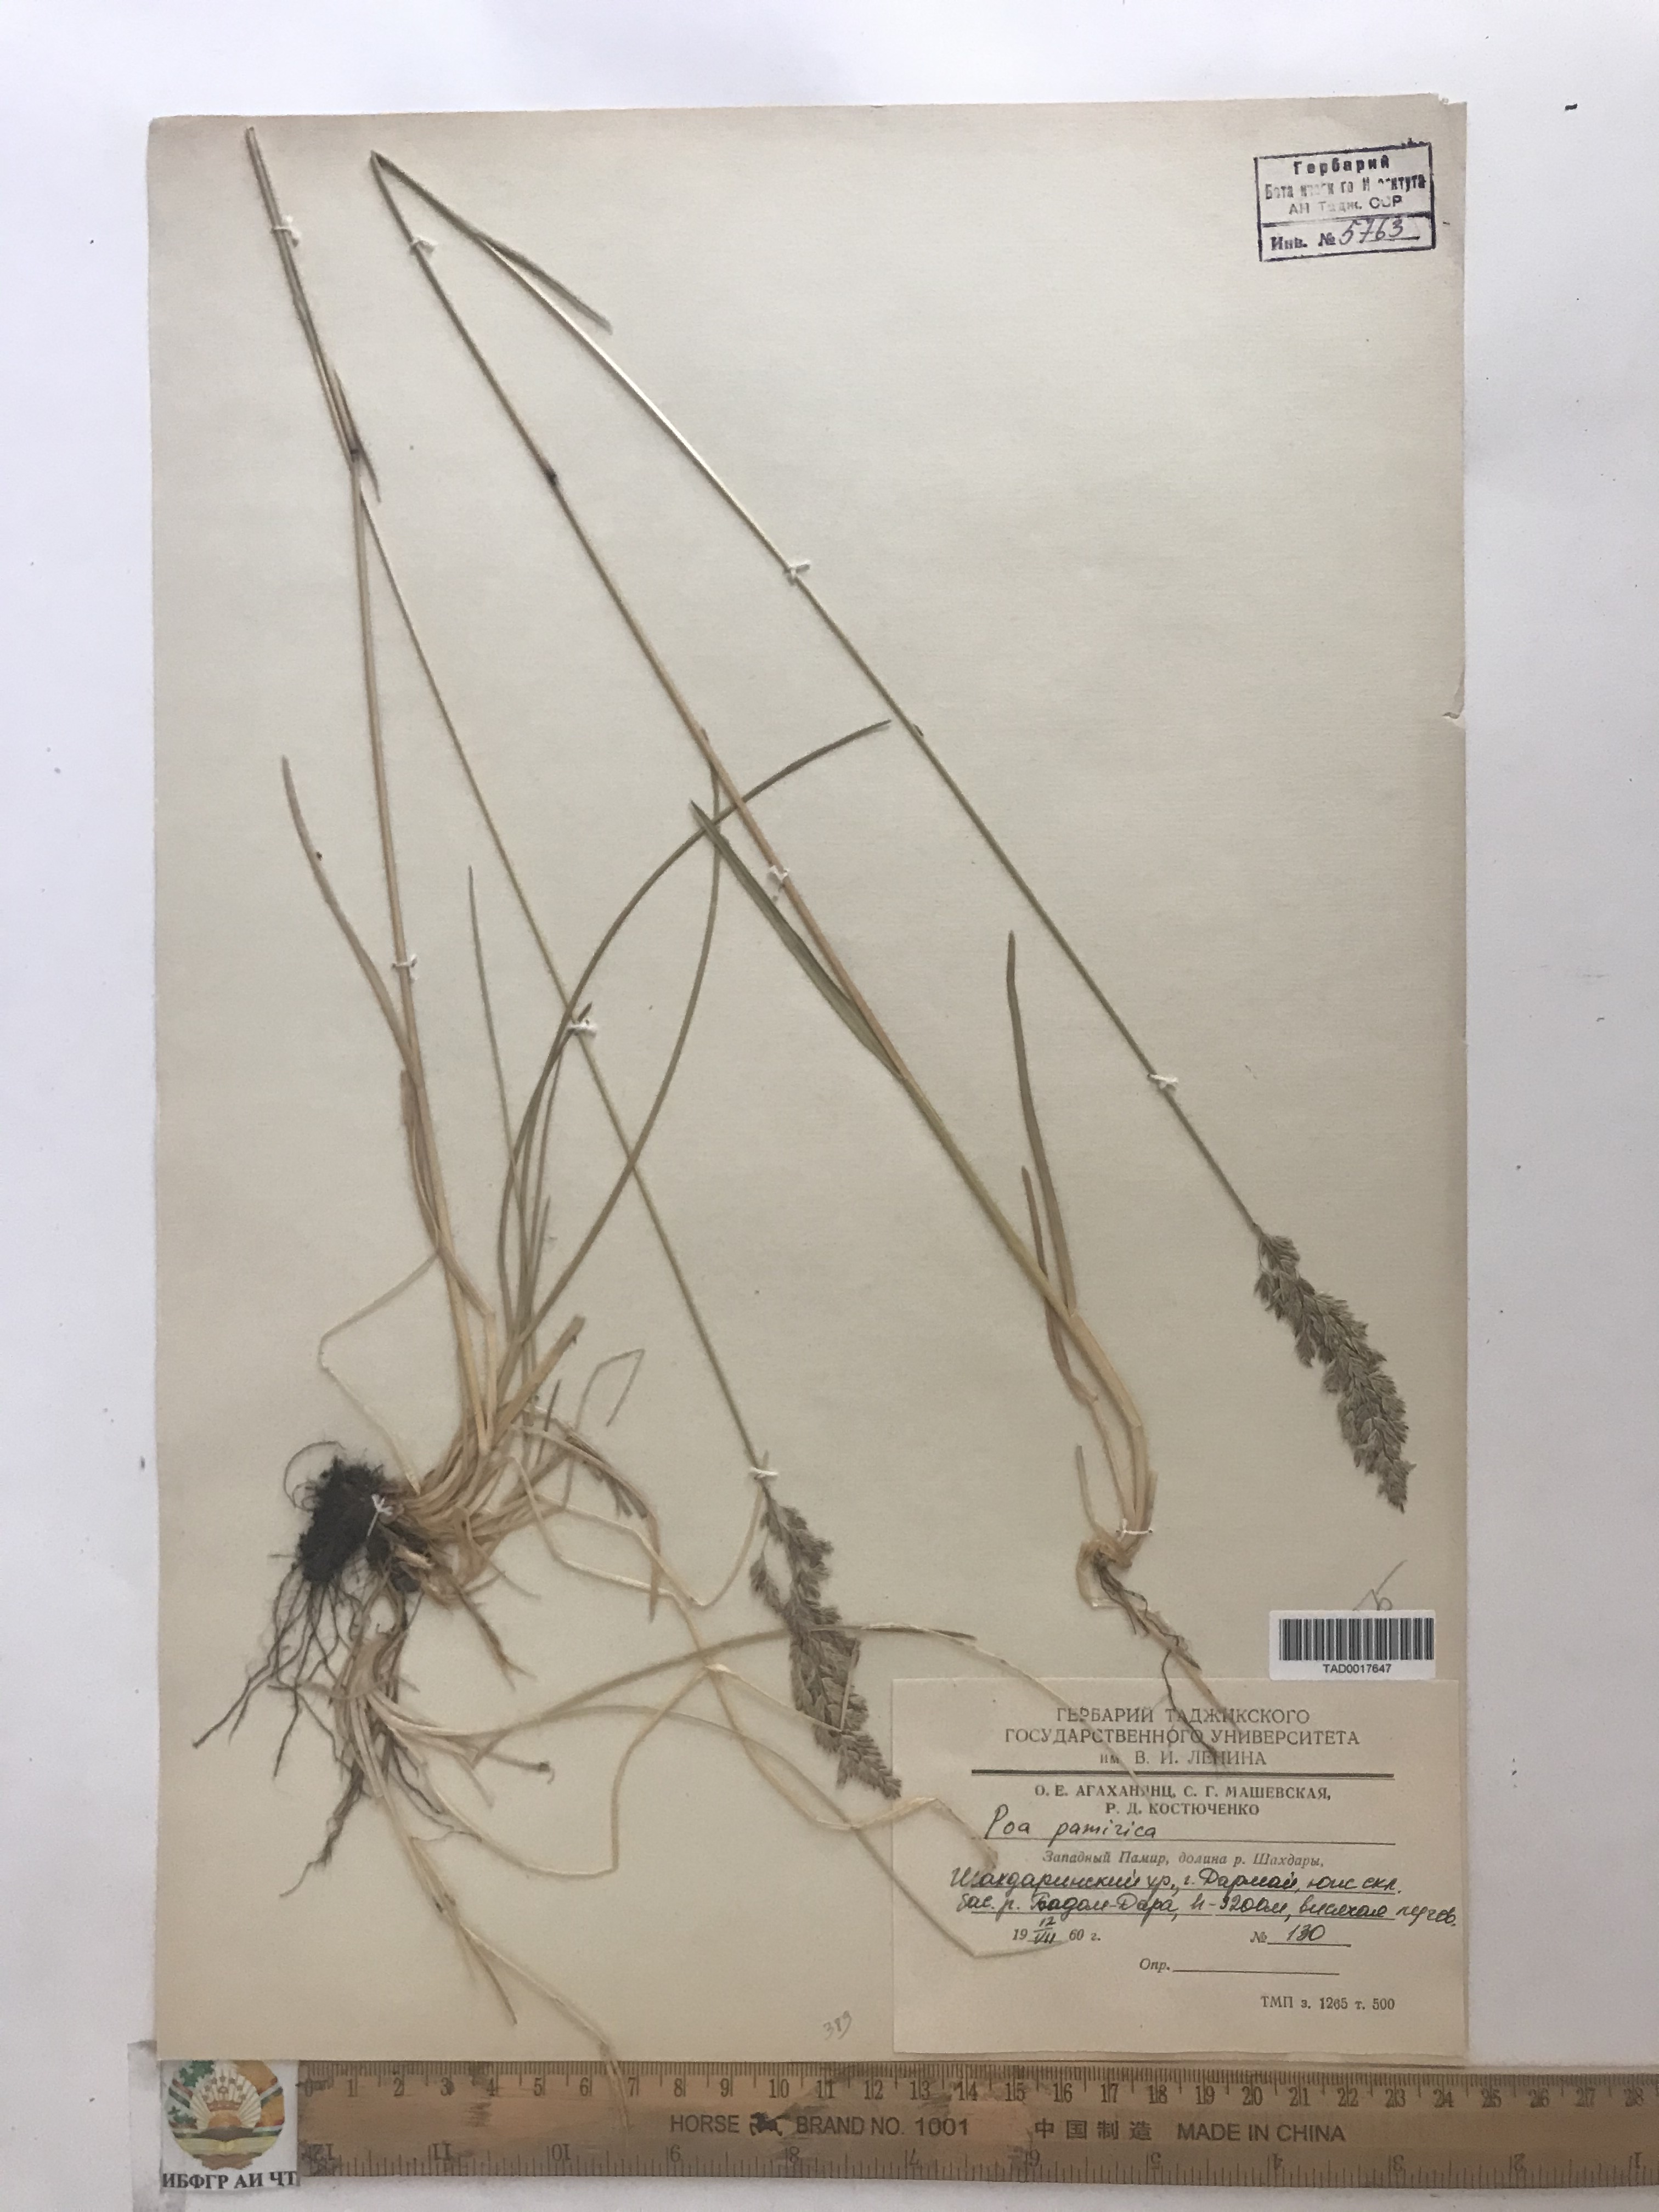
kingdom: Plantae
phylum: Tracheophyta
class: Liliopsida
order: Poales
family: Poaceae
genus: Poa
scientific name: Poa tianschanica
